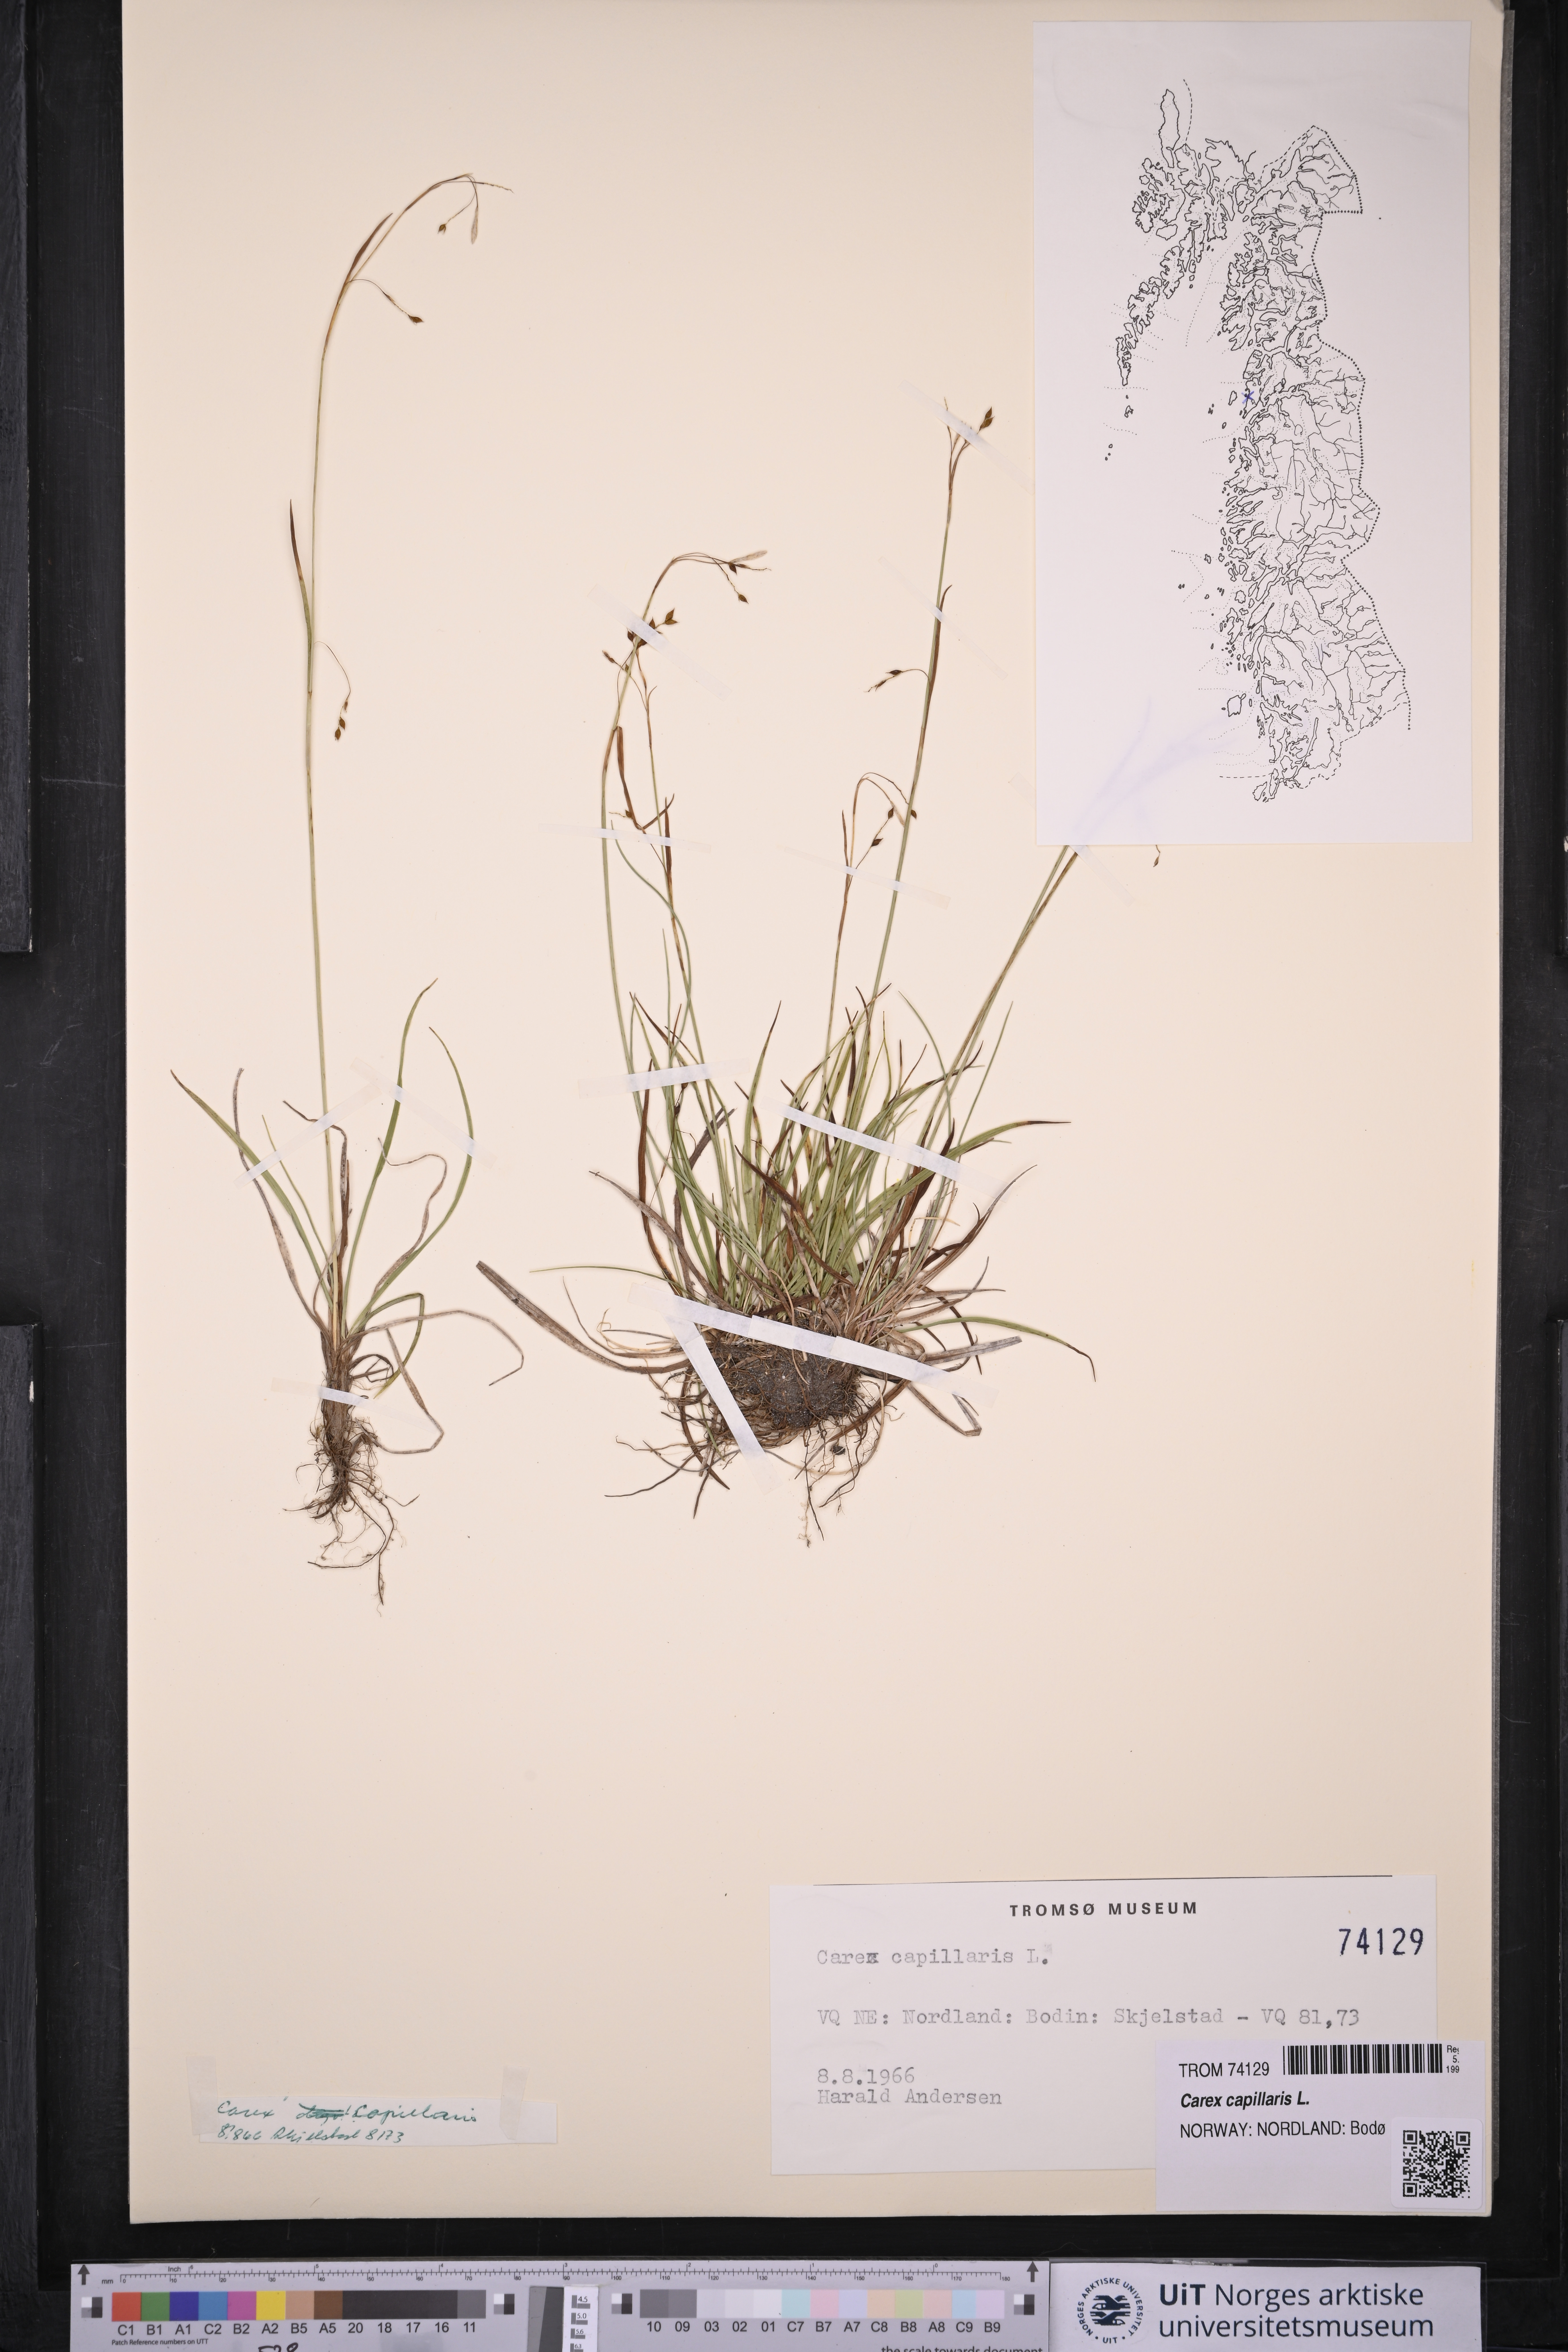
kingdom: Plantae
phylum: Tracheophyta
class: Liliopsida
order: Poales
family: Cyperaceae
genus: Carex
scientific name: Carex capillaris
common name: Hair sedge
